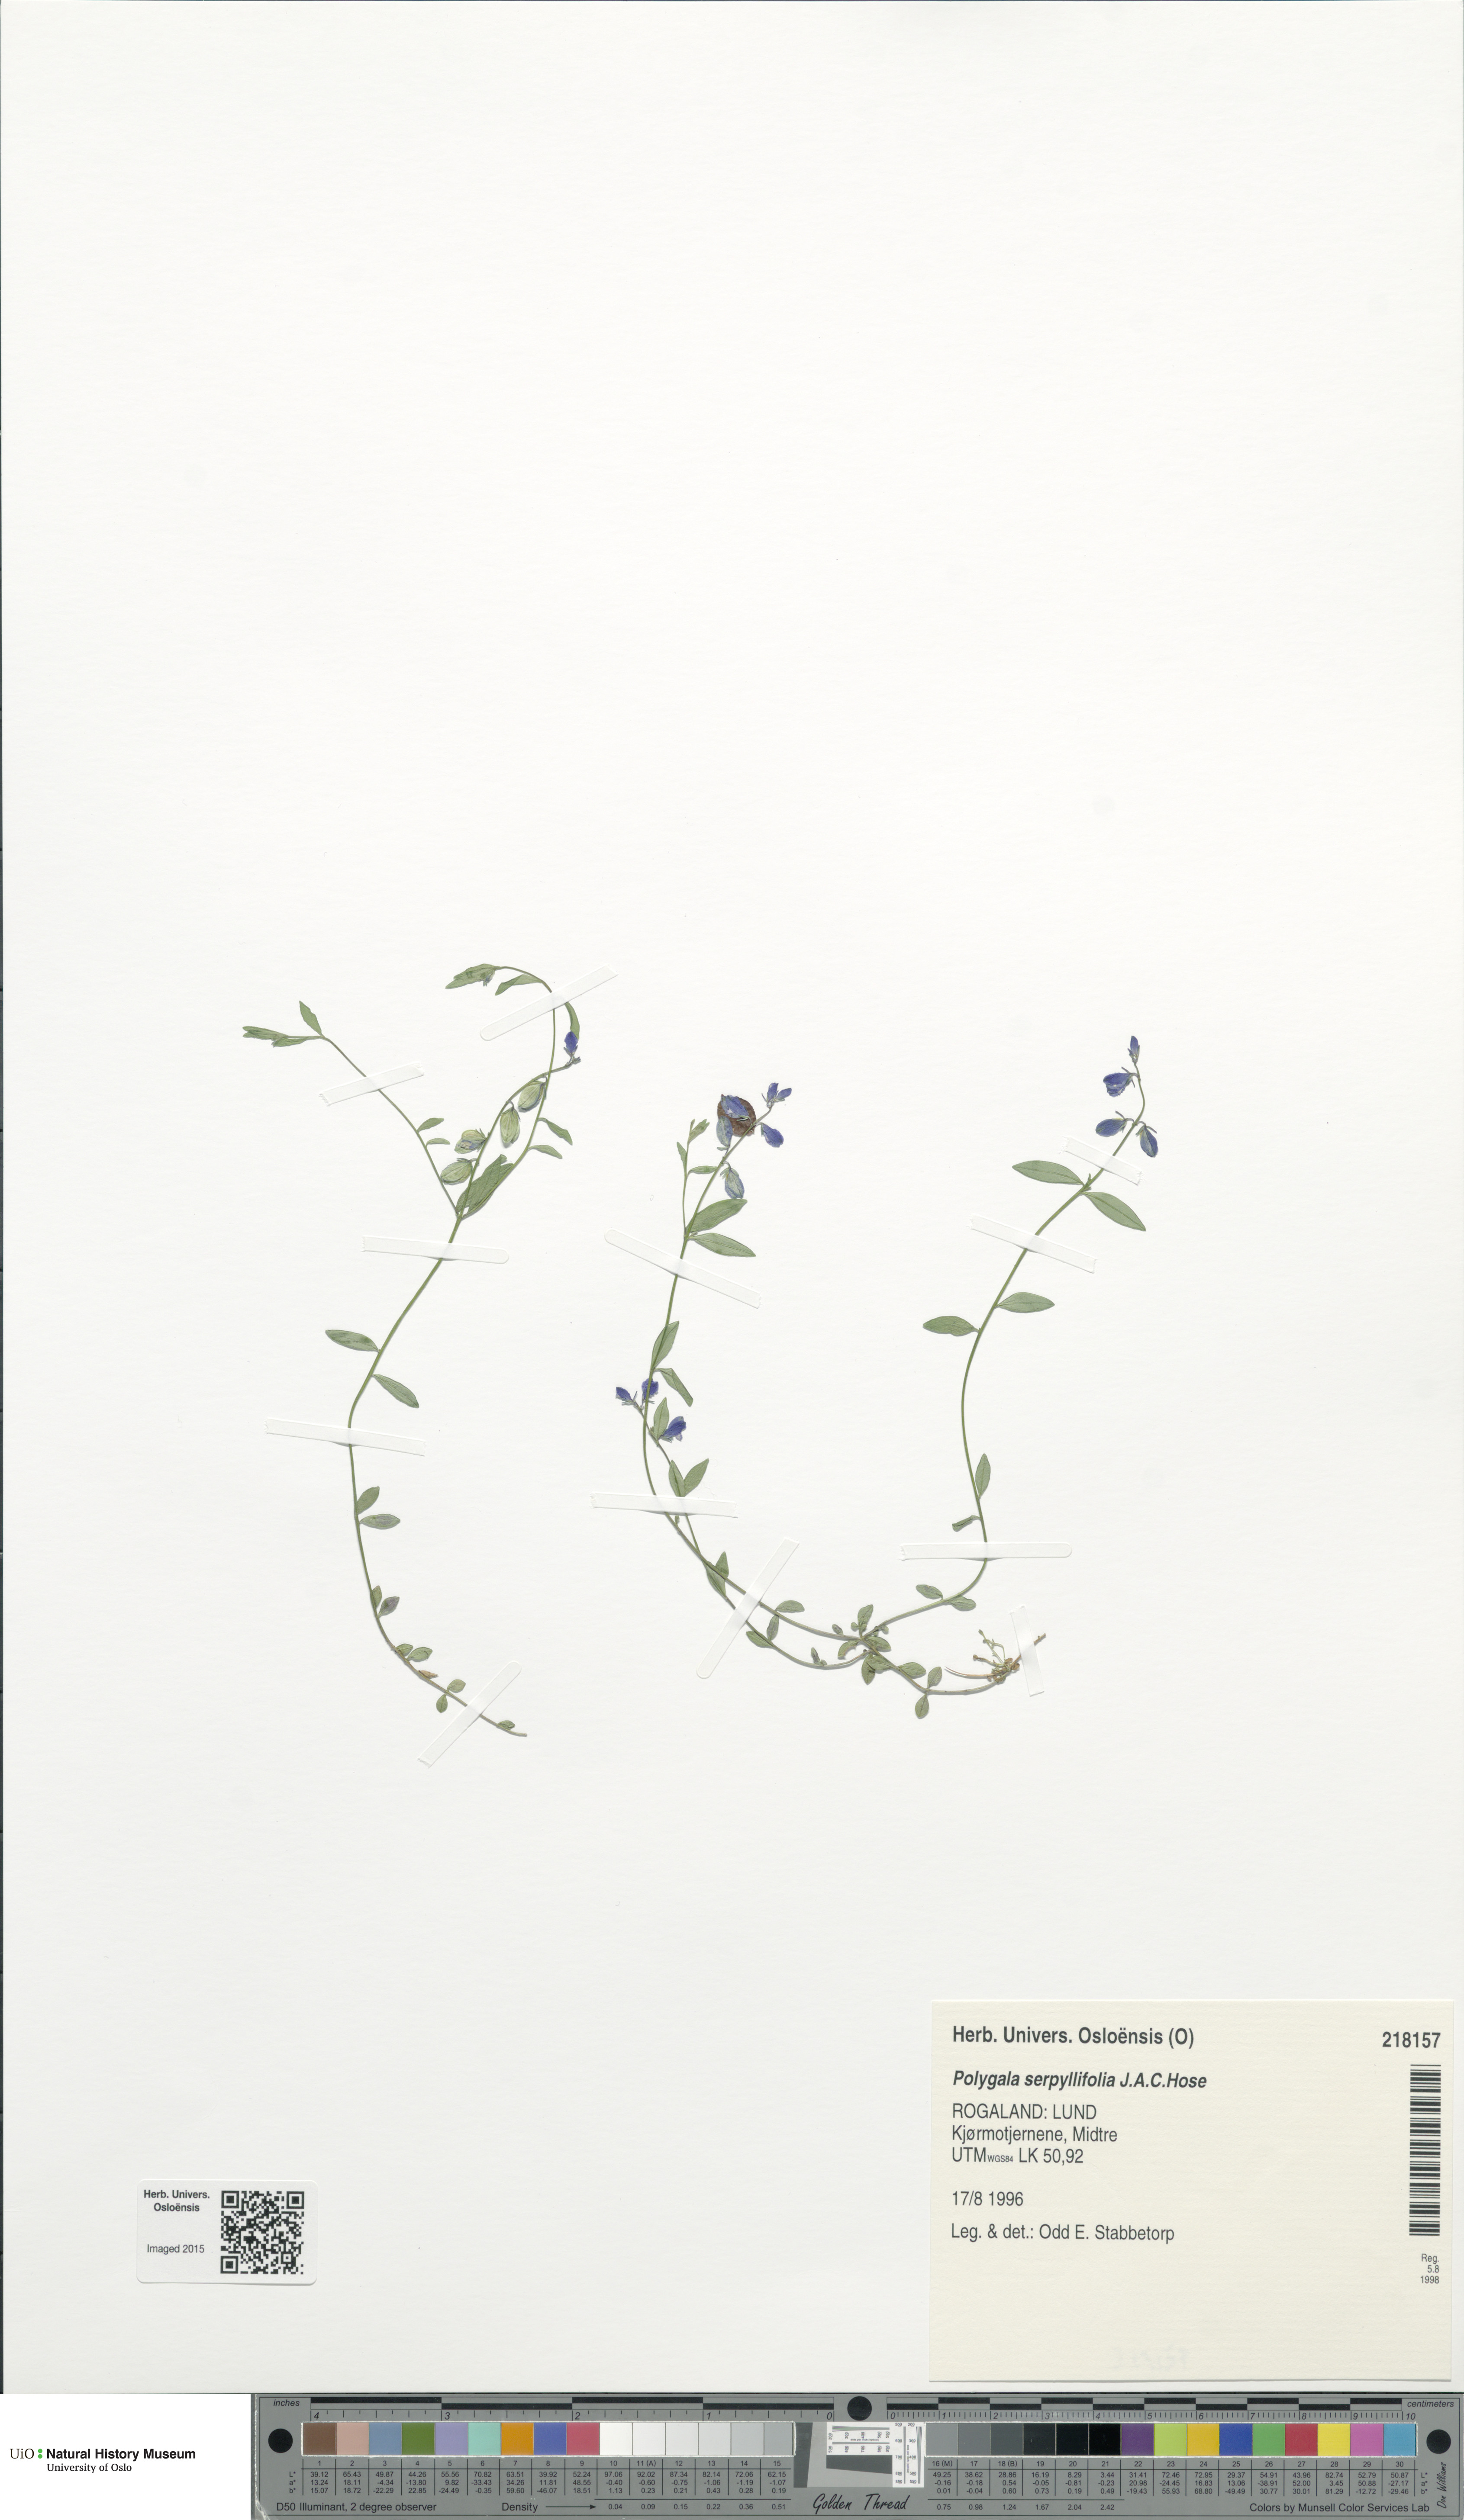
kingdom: Plantae
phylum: Tracheophyta
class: Magnoliopsida
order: Fabales
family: Polygalaceae
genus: Polygala
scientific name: Polygala serpyllifolia
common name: Heath milkwort
